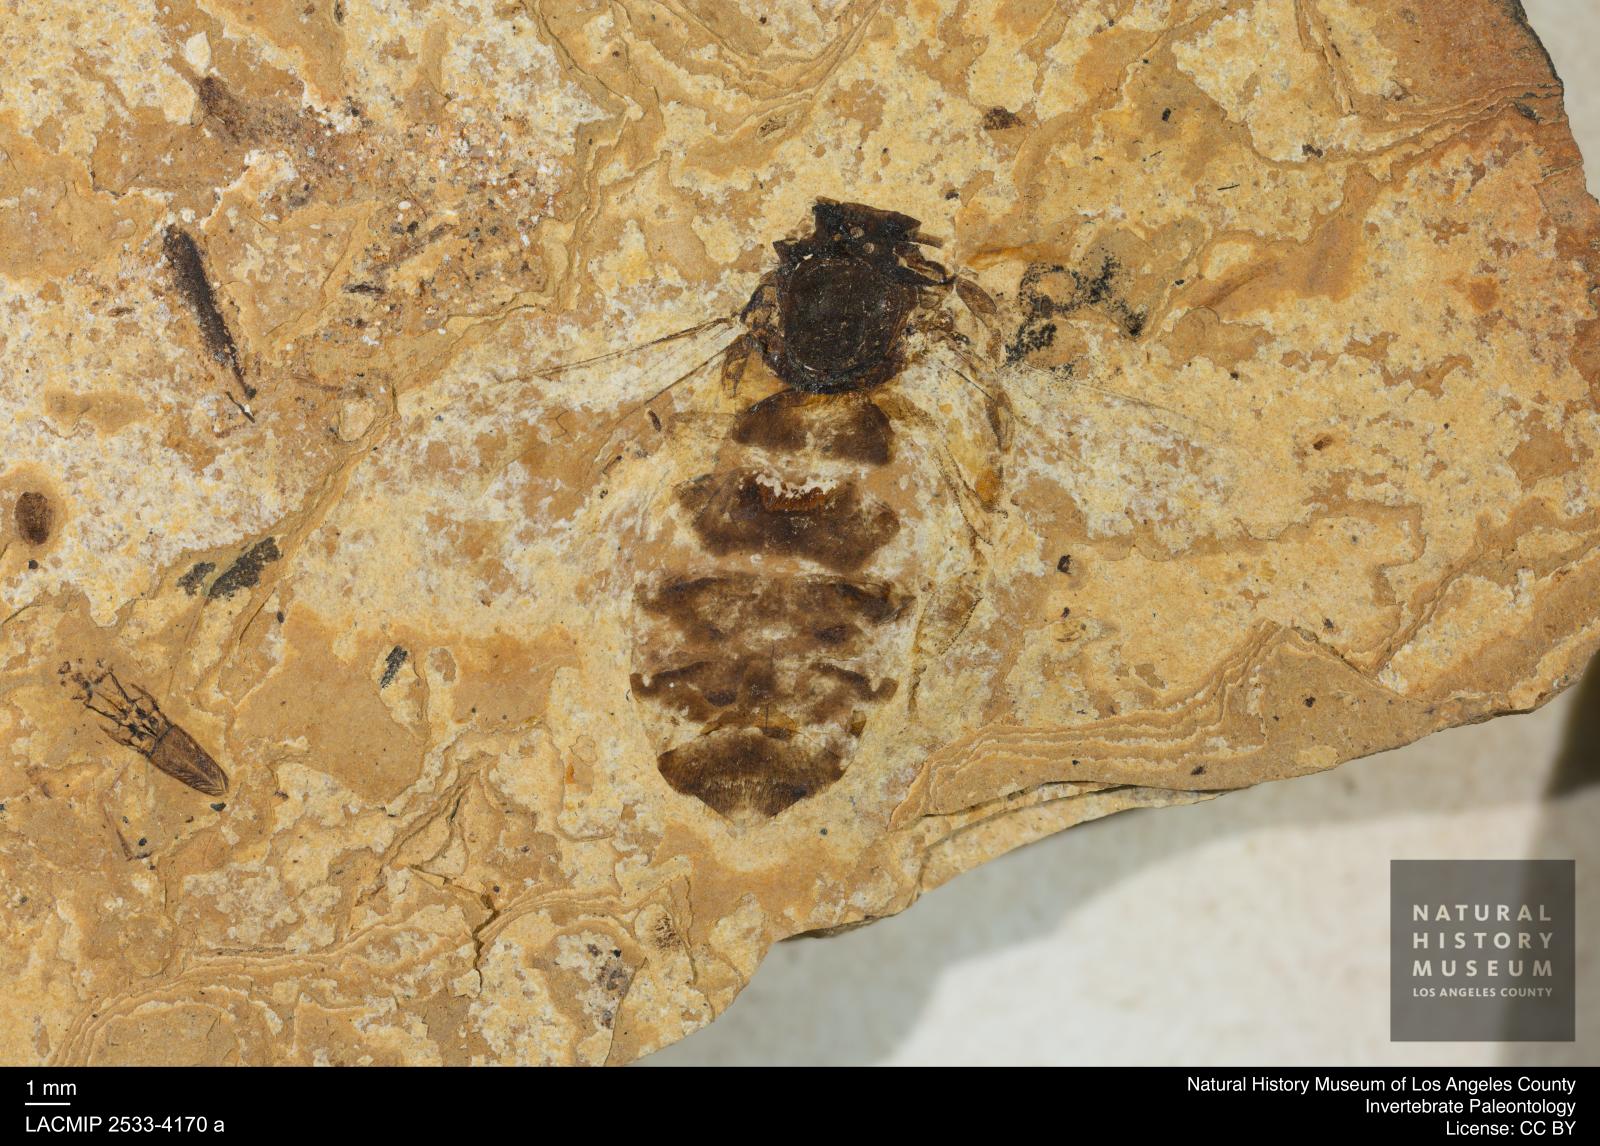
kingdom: Animalia
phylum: Arthropoda
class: Insecta
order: Hymenoptera
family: Apidae
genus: Apis
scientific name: Apis henshawi
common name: Henshaw's honey bee
